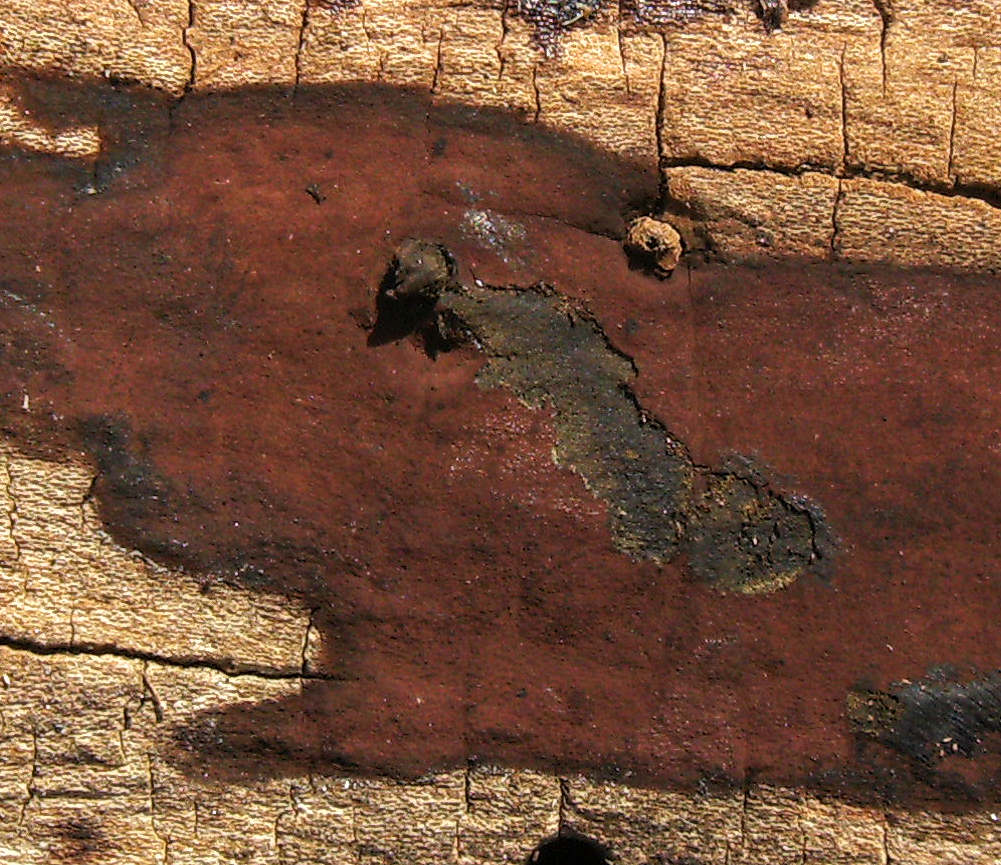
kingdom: Fungi
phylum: Ascomycota
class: Sordariomycetes
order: Xylariales
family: Hypoxylaceae
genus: Hypoxylon
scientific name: Hypoxylon macrocarpum
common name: skorpe-kulbær
